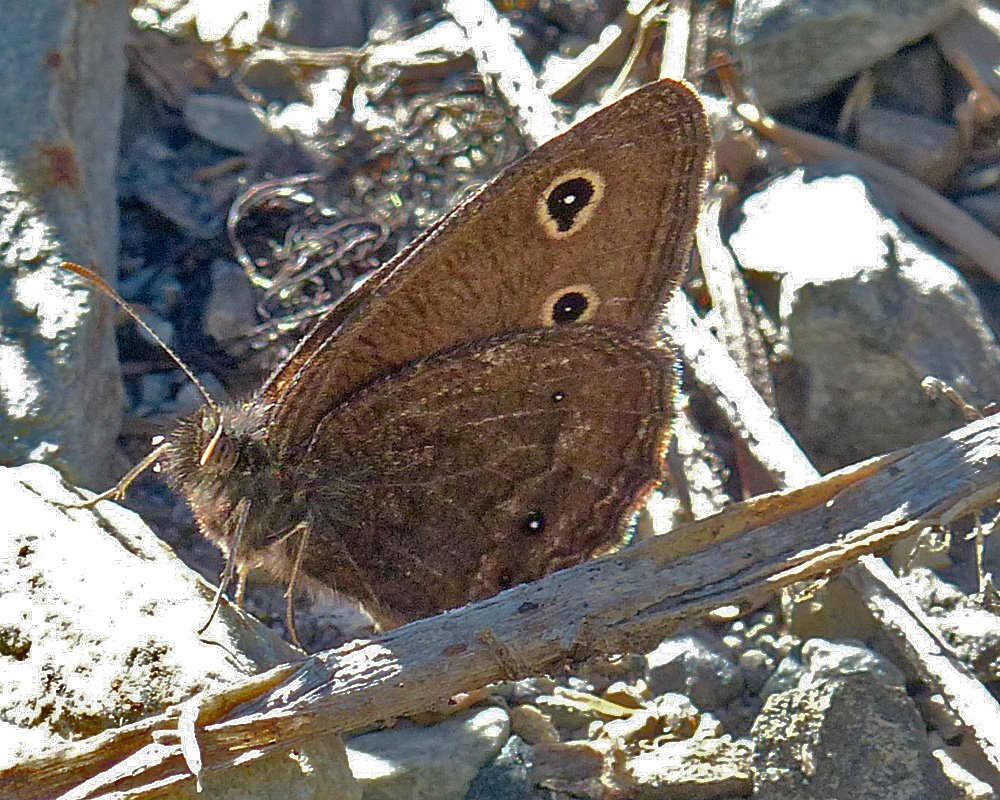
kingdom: Animalia
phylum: Arthropoda
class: Insecta
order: Lepidoptera
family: Nymphalidae
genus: Cercyonis
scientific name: Cercyonis oetus
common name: Small Wood-Nymph
